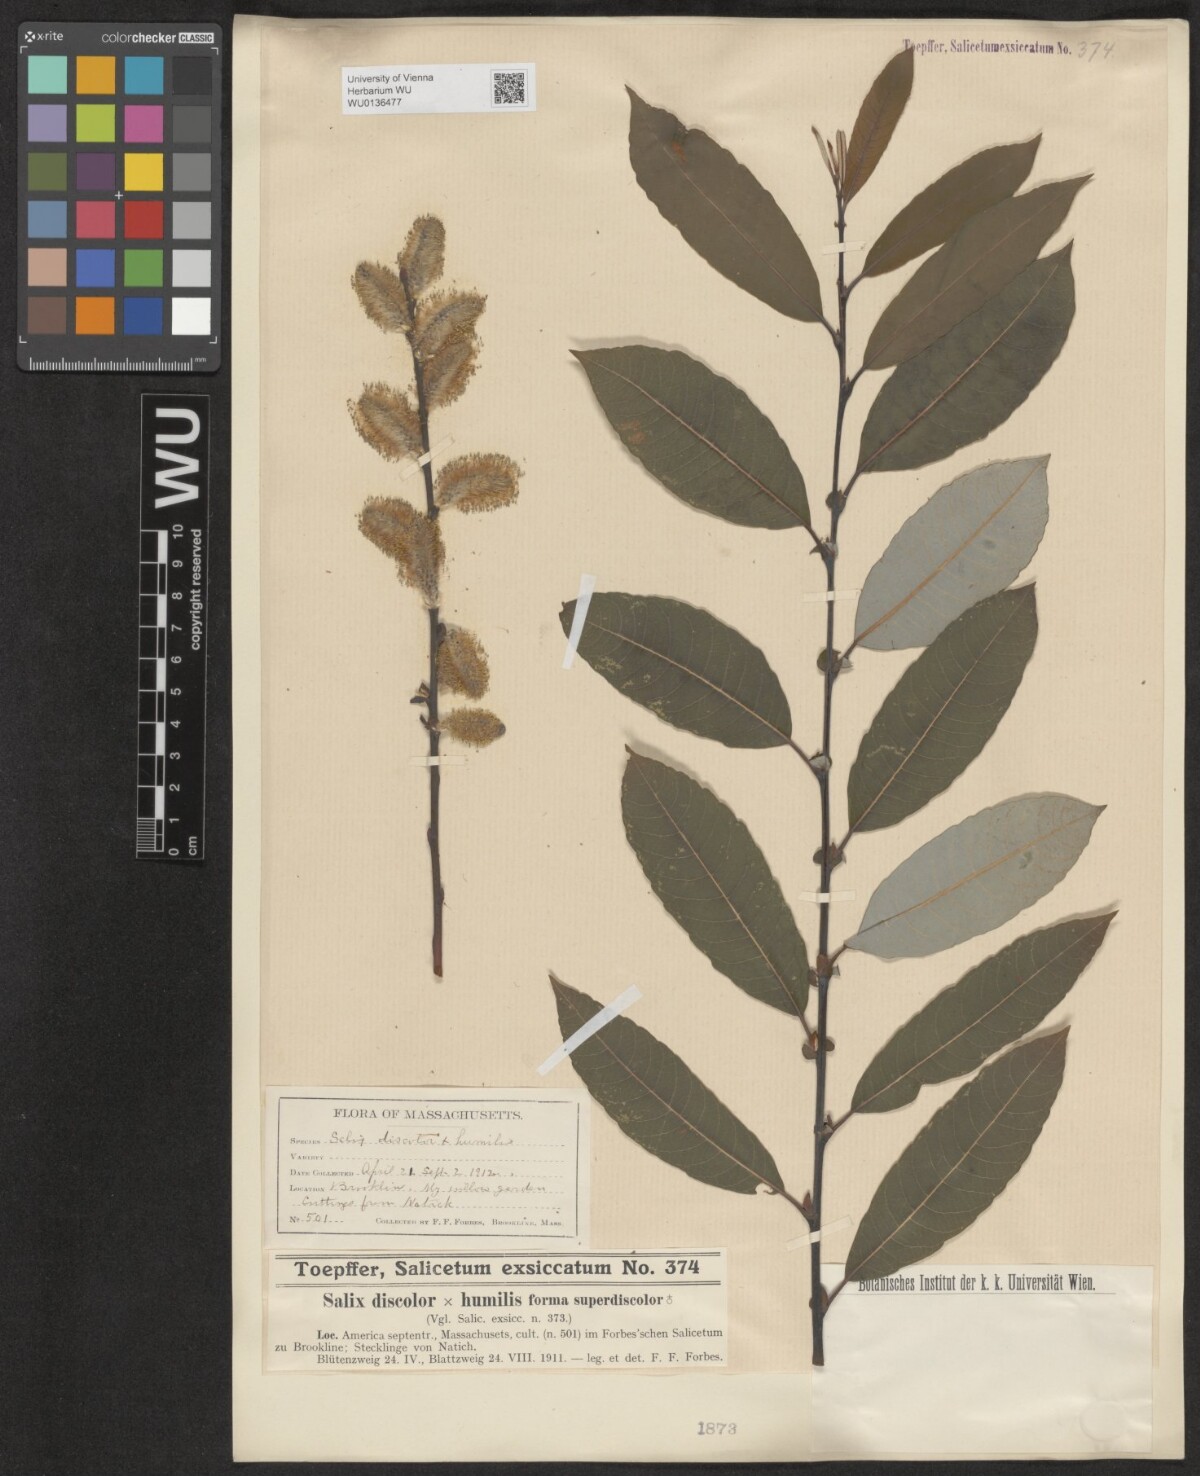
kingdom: Plantae
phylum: Tracheophyta
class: Magnoliopsida
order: Malpighiales
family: Salicaceae
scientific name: Salicaceae
